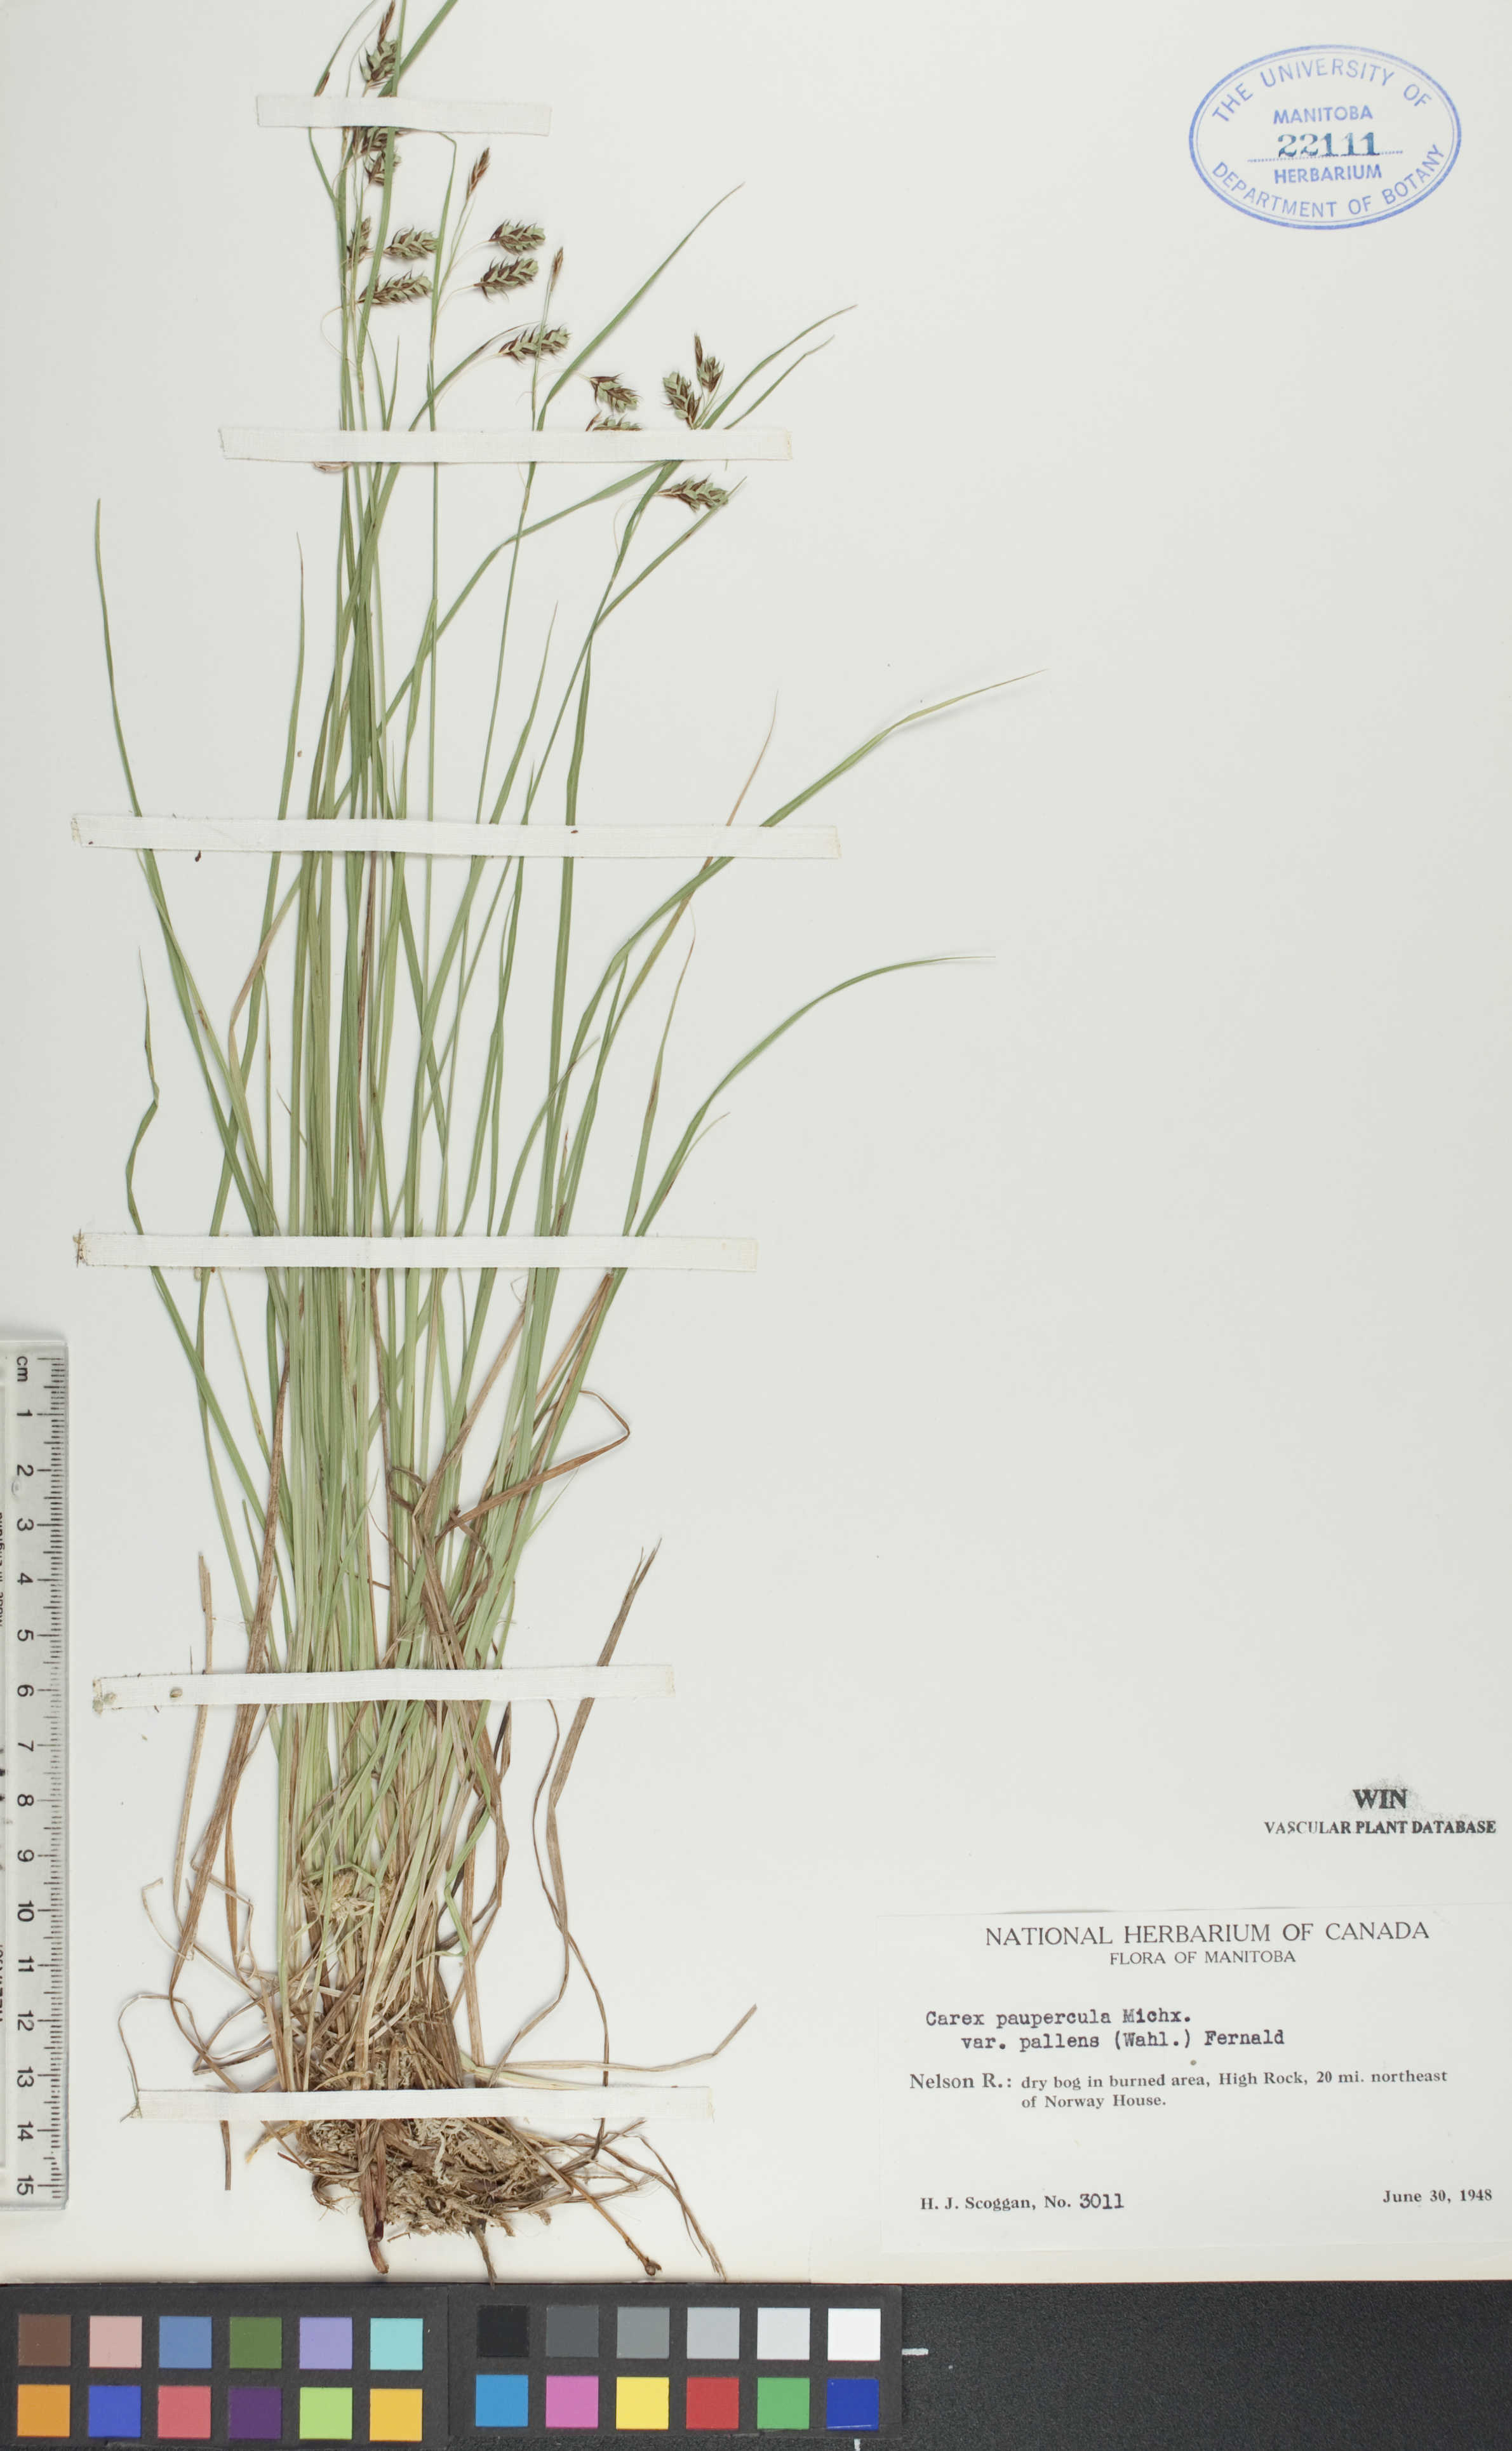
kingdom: Plantae
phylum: Tracheophyta
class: Liliopsida
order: Poales
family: Cyperaceae
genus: Carex
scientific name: Carex magellanica
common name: Bog sedge
